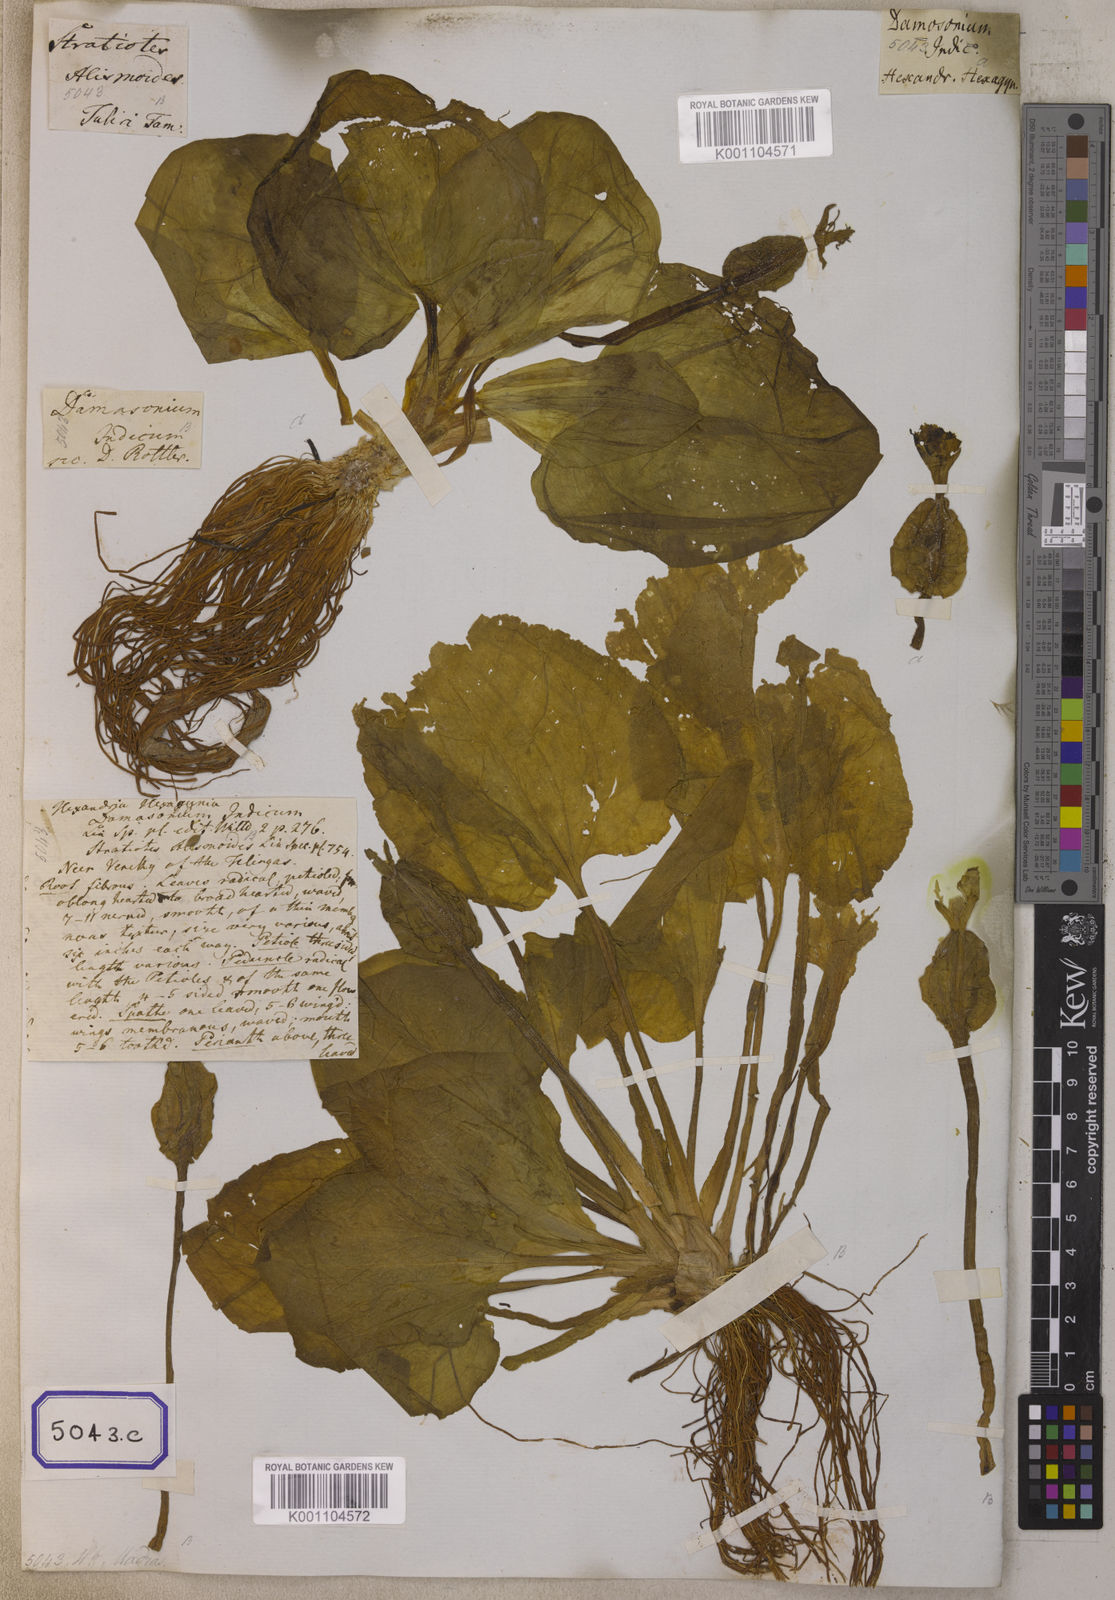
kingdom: Plantae
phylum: Tracheophyta
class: Liliopsida
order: Alismatales
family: Hydrocharitaceae
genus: Ottelia
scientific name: Ottelia alismoides
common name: Duck-lettuce
